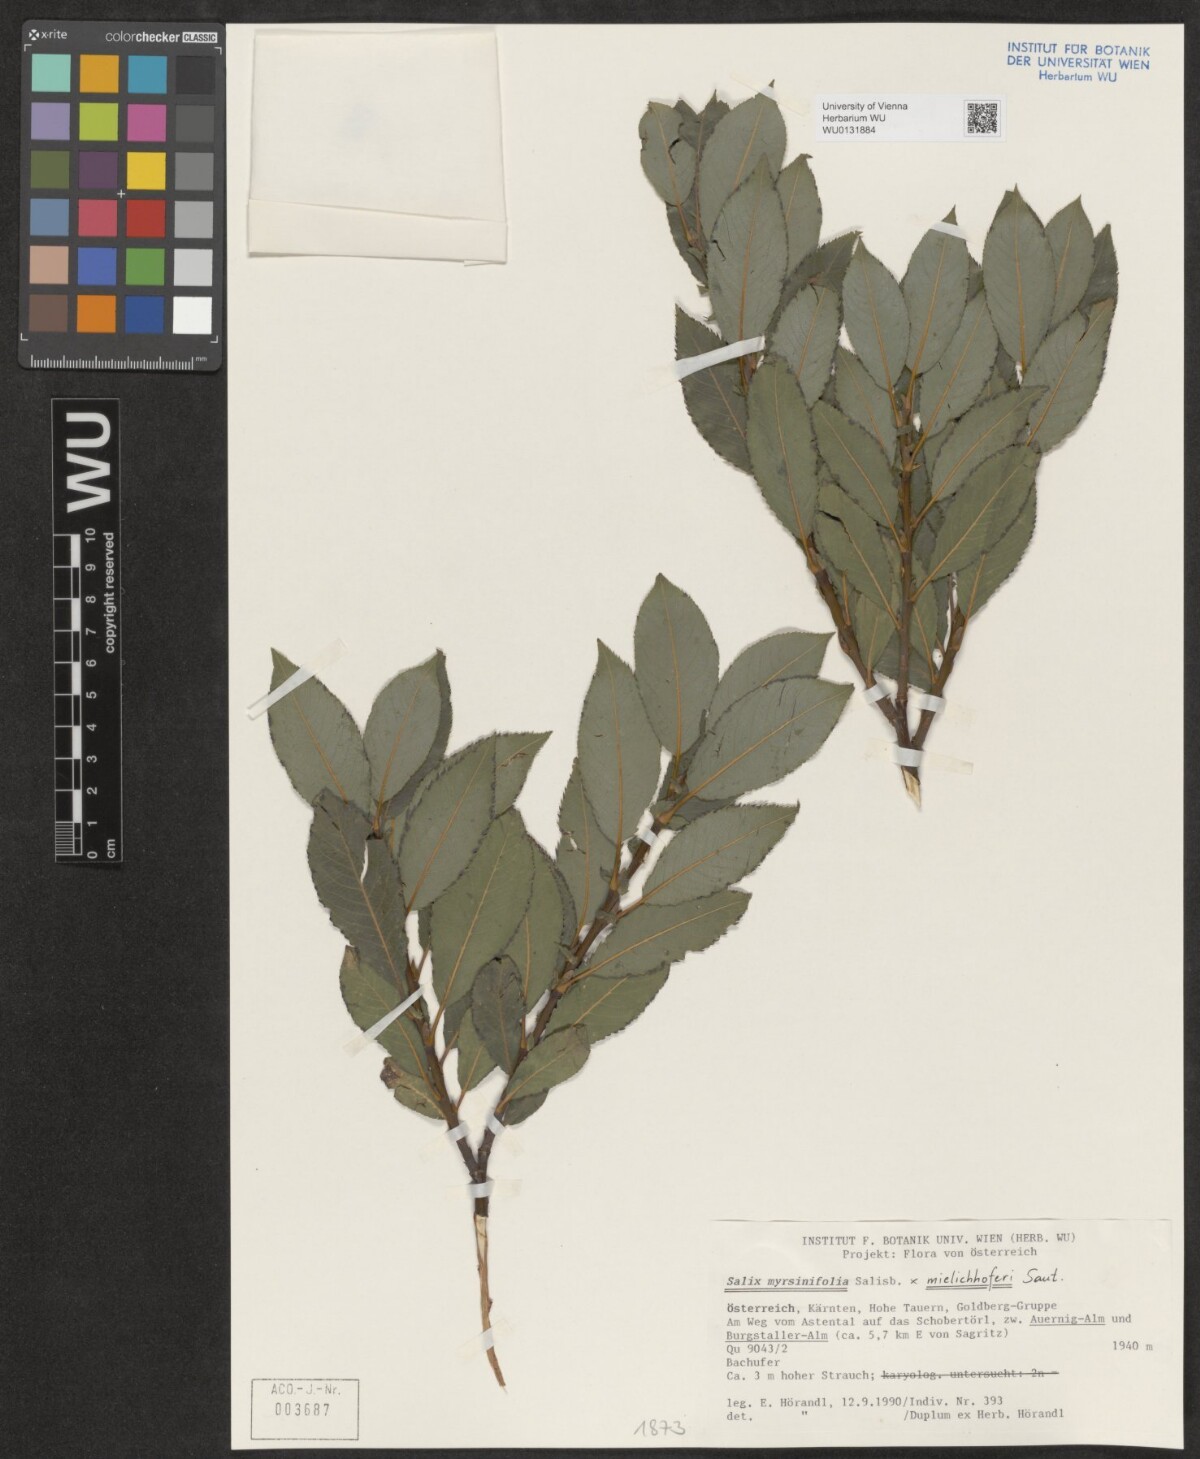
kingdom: Plantae
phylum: Tracheophyta
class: Magnoliopsida
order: Malpighiales
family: Salicaceae
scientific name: Salicaceae
